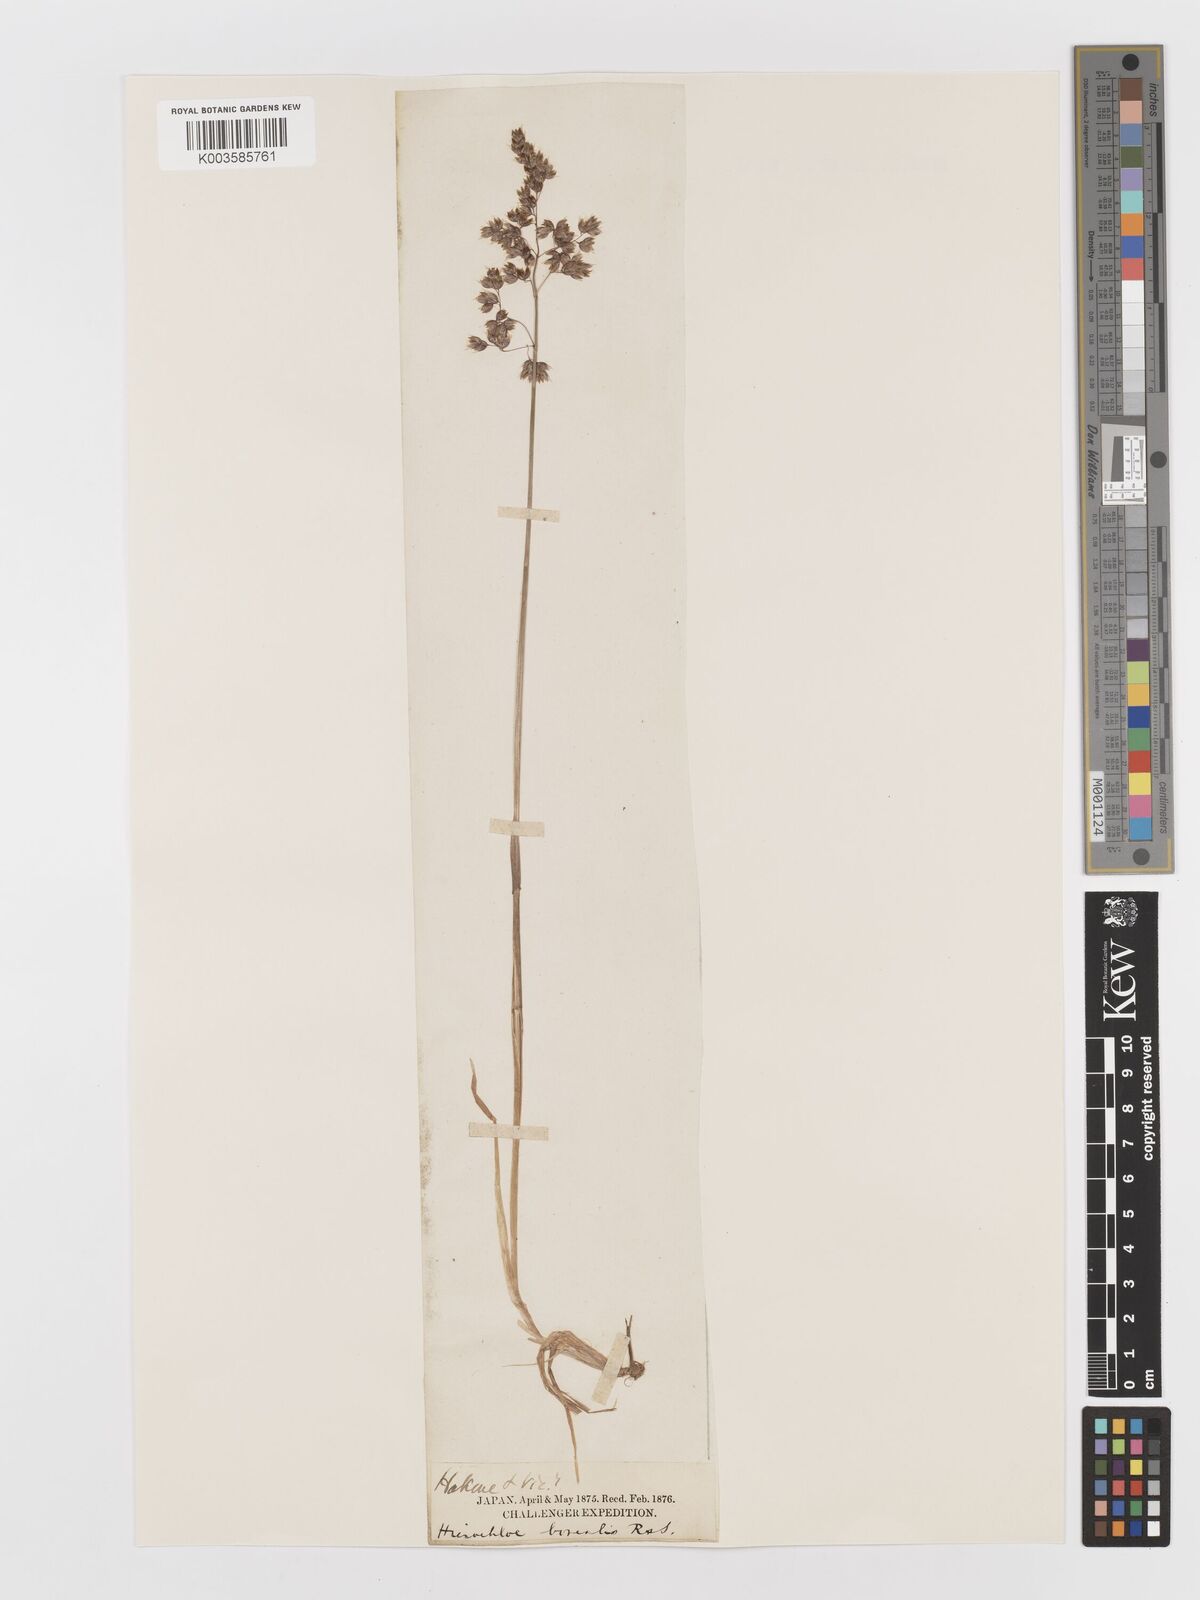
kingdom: Plantae
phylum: Tracheophyta
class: Liliopsida
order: Poales
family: Poaceae
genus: Anthoxanthum
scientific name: Anthoxanthum nitens
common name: Holy grass
